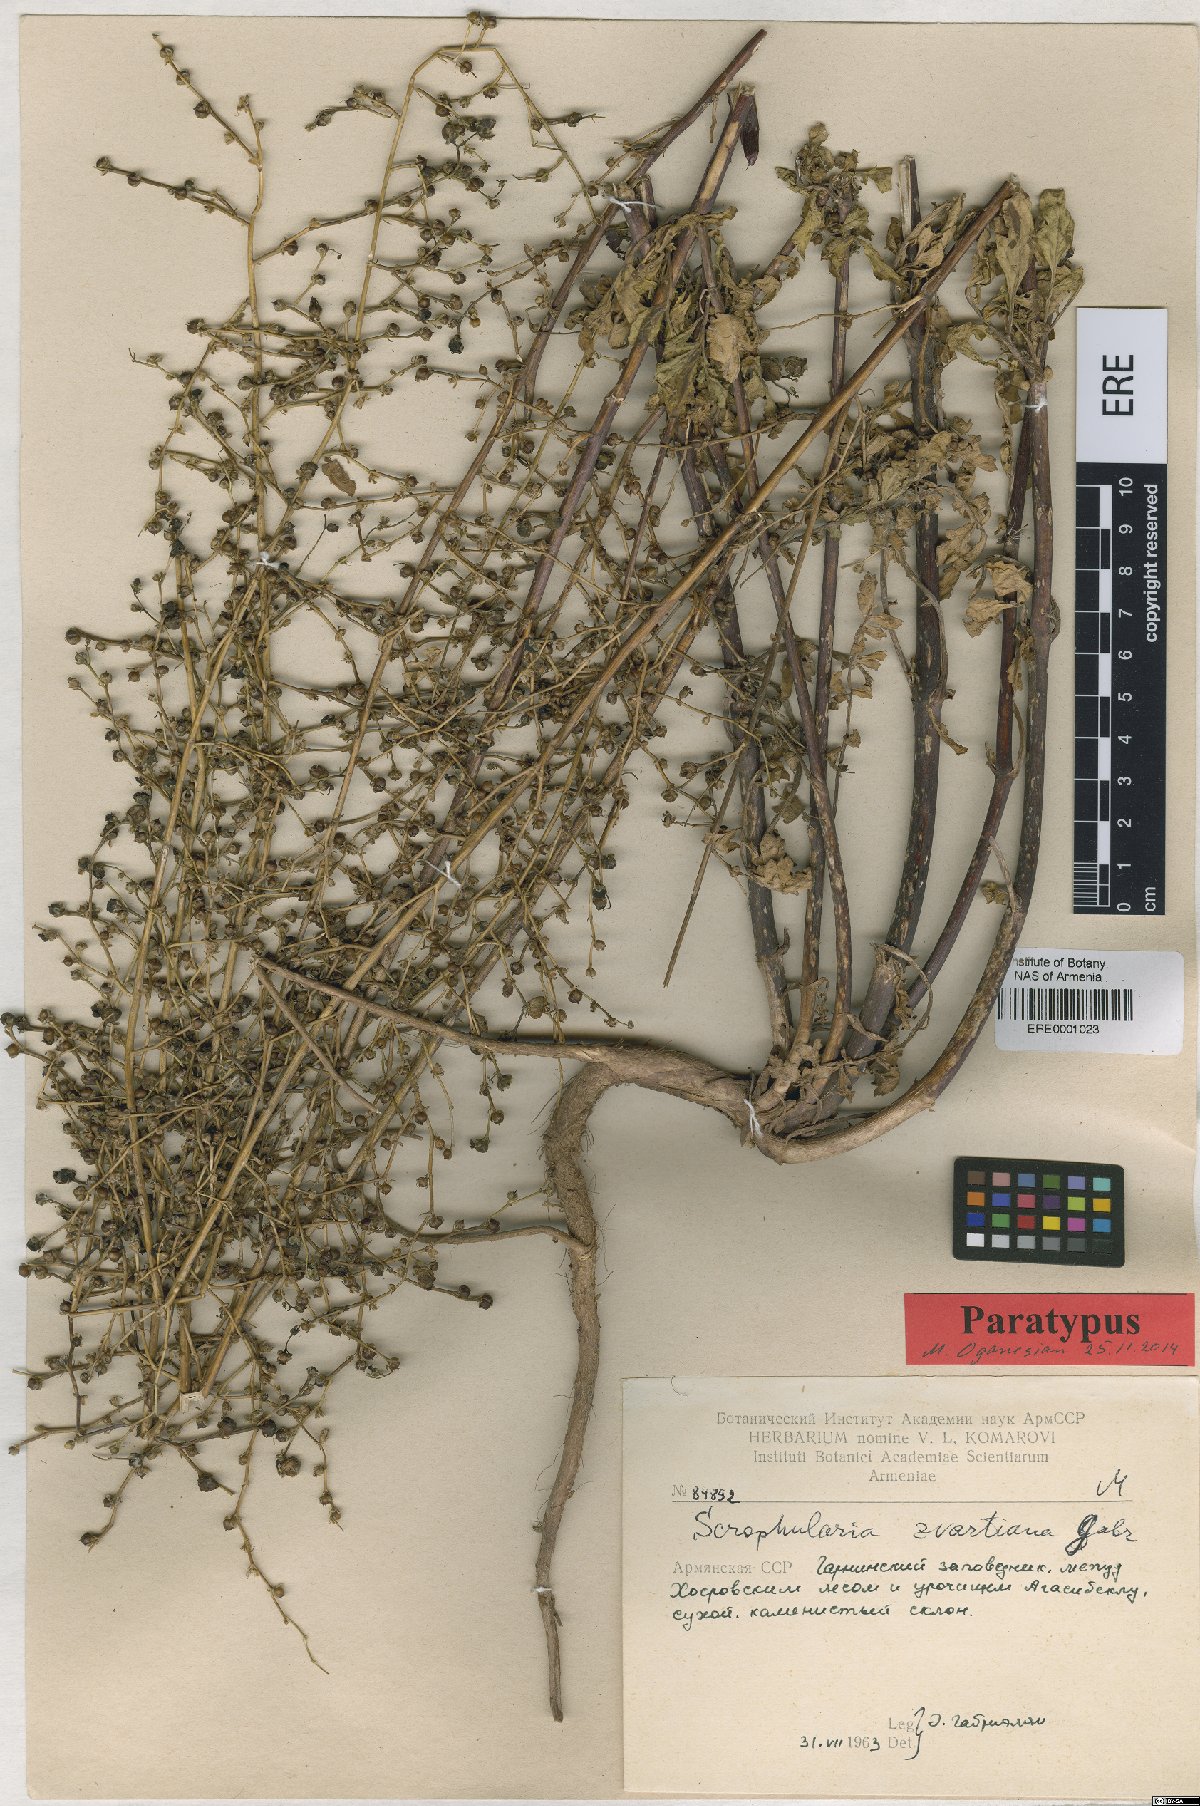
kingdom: Plantae
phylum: Tracheophyta
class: Magnoliopsida
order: Lamiales
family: Scrophulariaceae
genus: Scrophularia
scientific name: Scrophularia zvartiana
